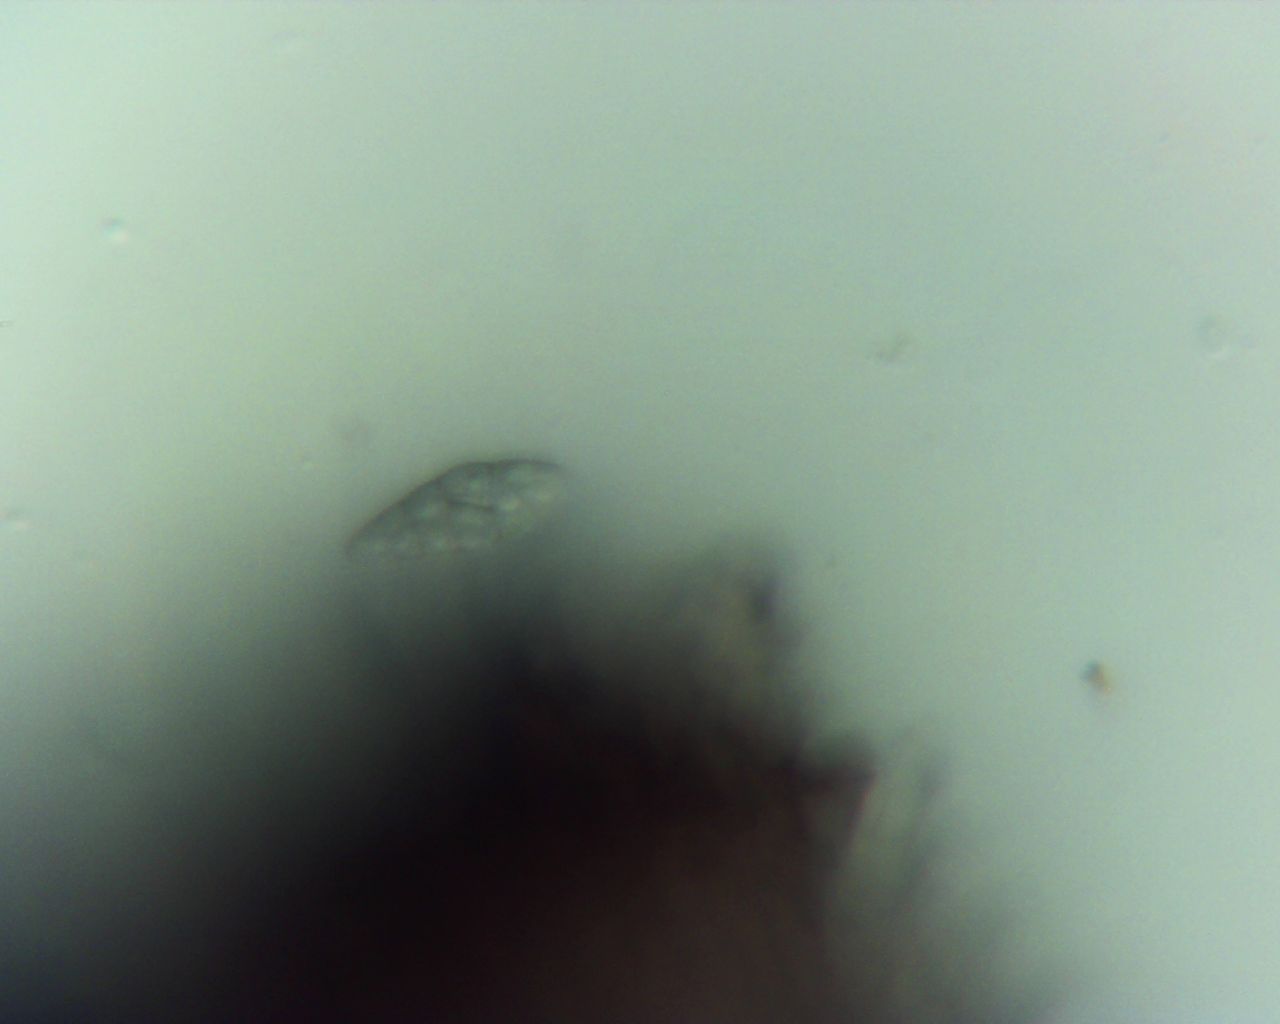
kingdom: Fungi
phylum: Ascomycota
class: Eurotiomycetes
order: Chaetothyriales
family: Herpotrichiellaceae
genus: Capronia
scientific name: Capronia nigerrima
